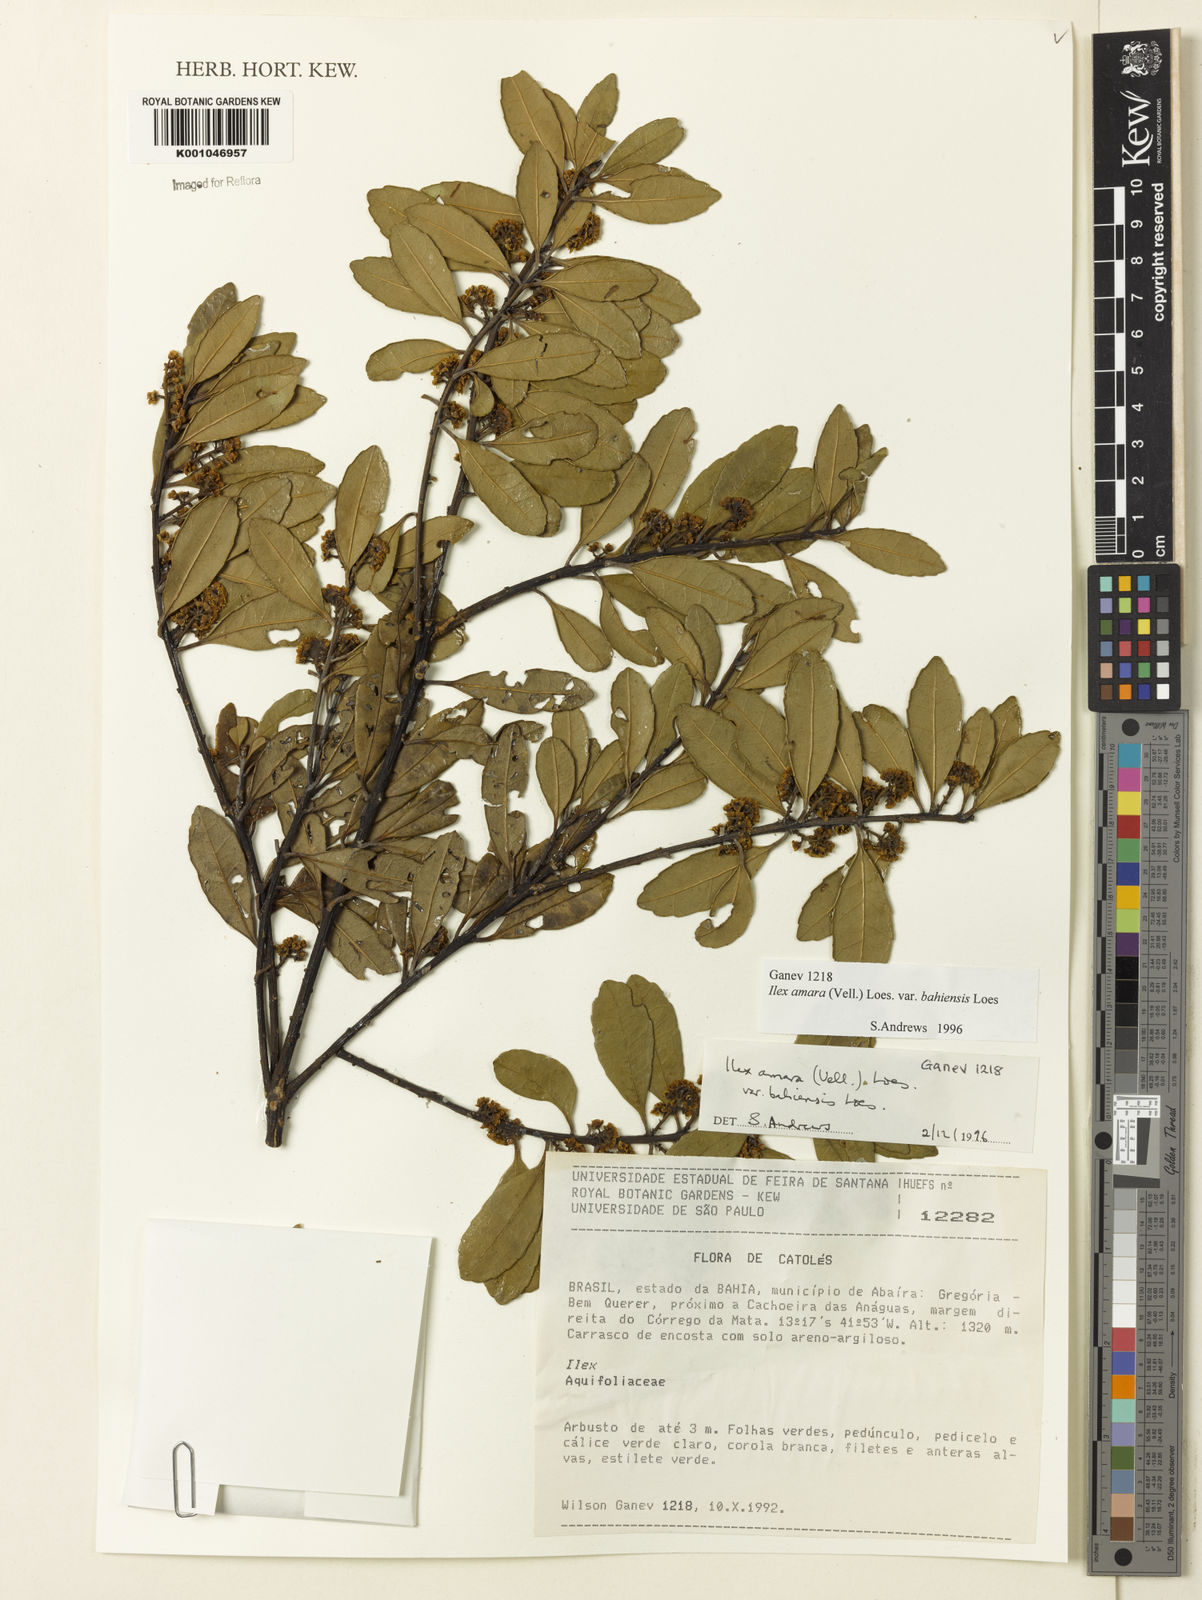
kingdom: Plantae
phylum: Tracheophyta
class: Magnoliopsida
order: Aquifoliales
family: Aquifoliaceae
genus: Ilex
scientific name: Ilex dumosa
